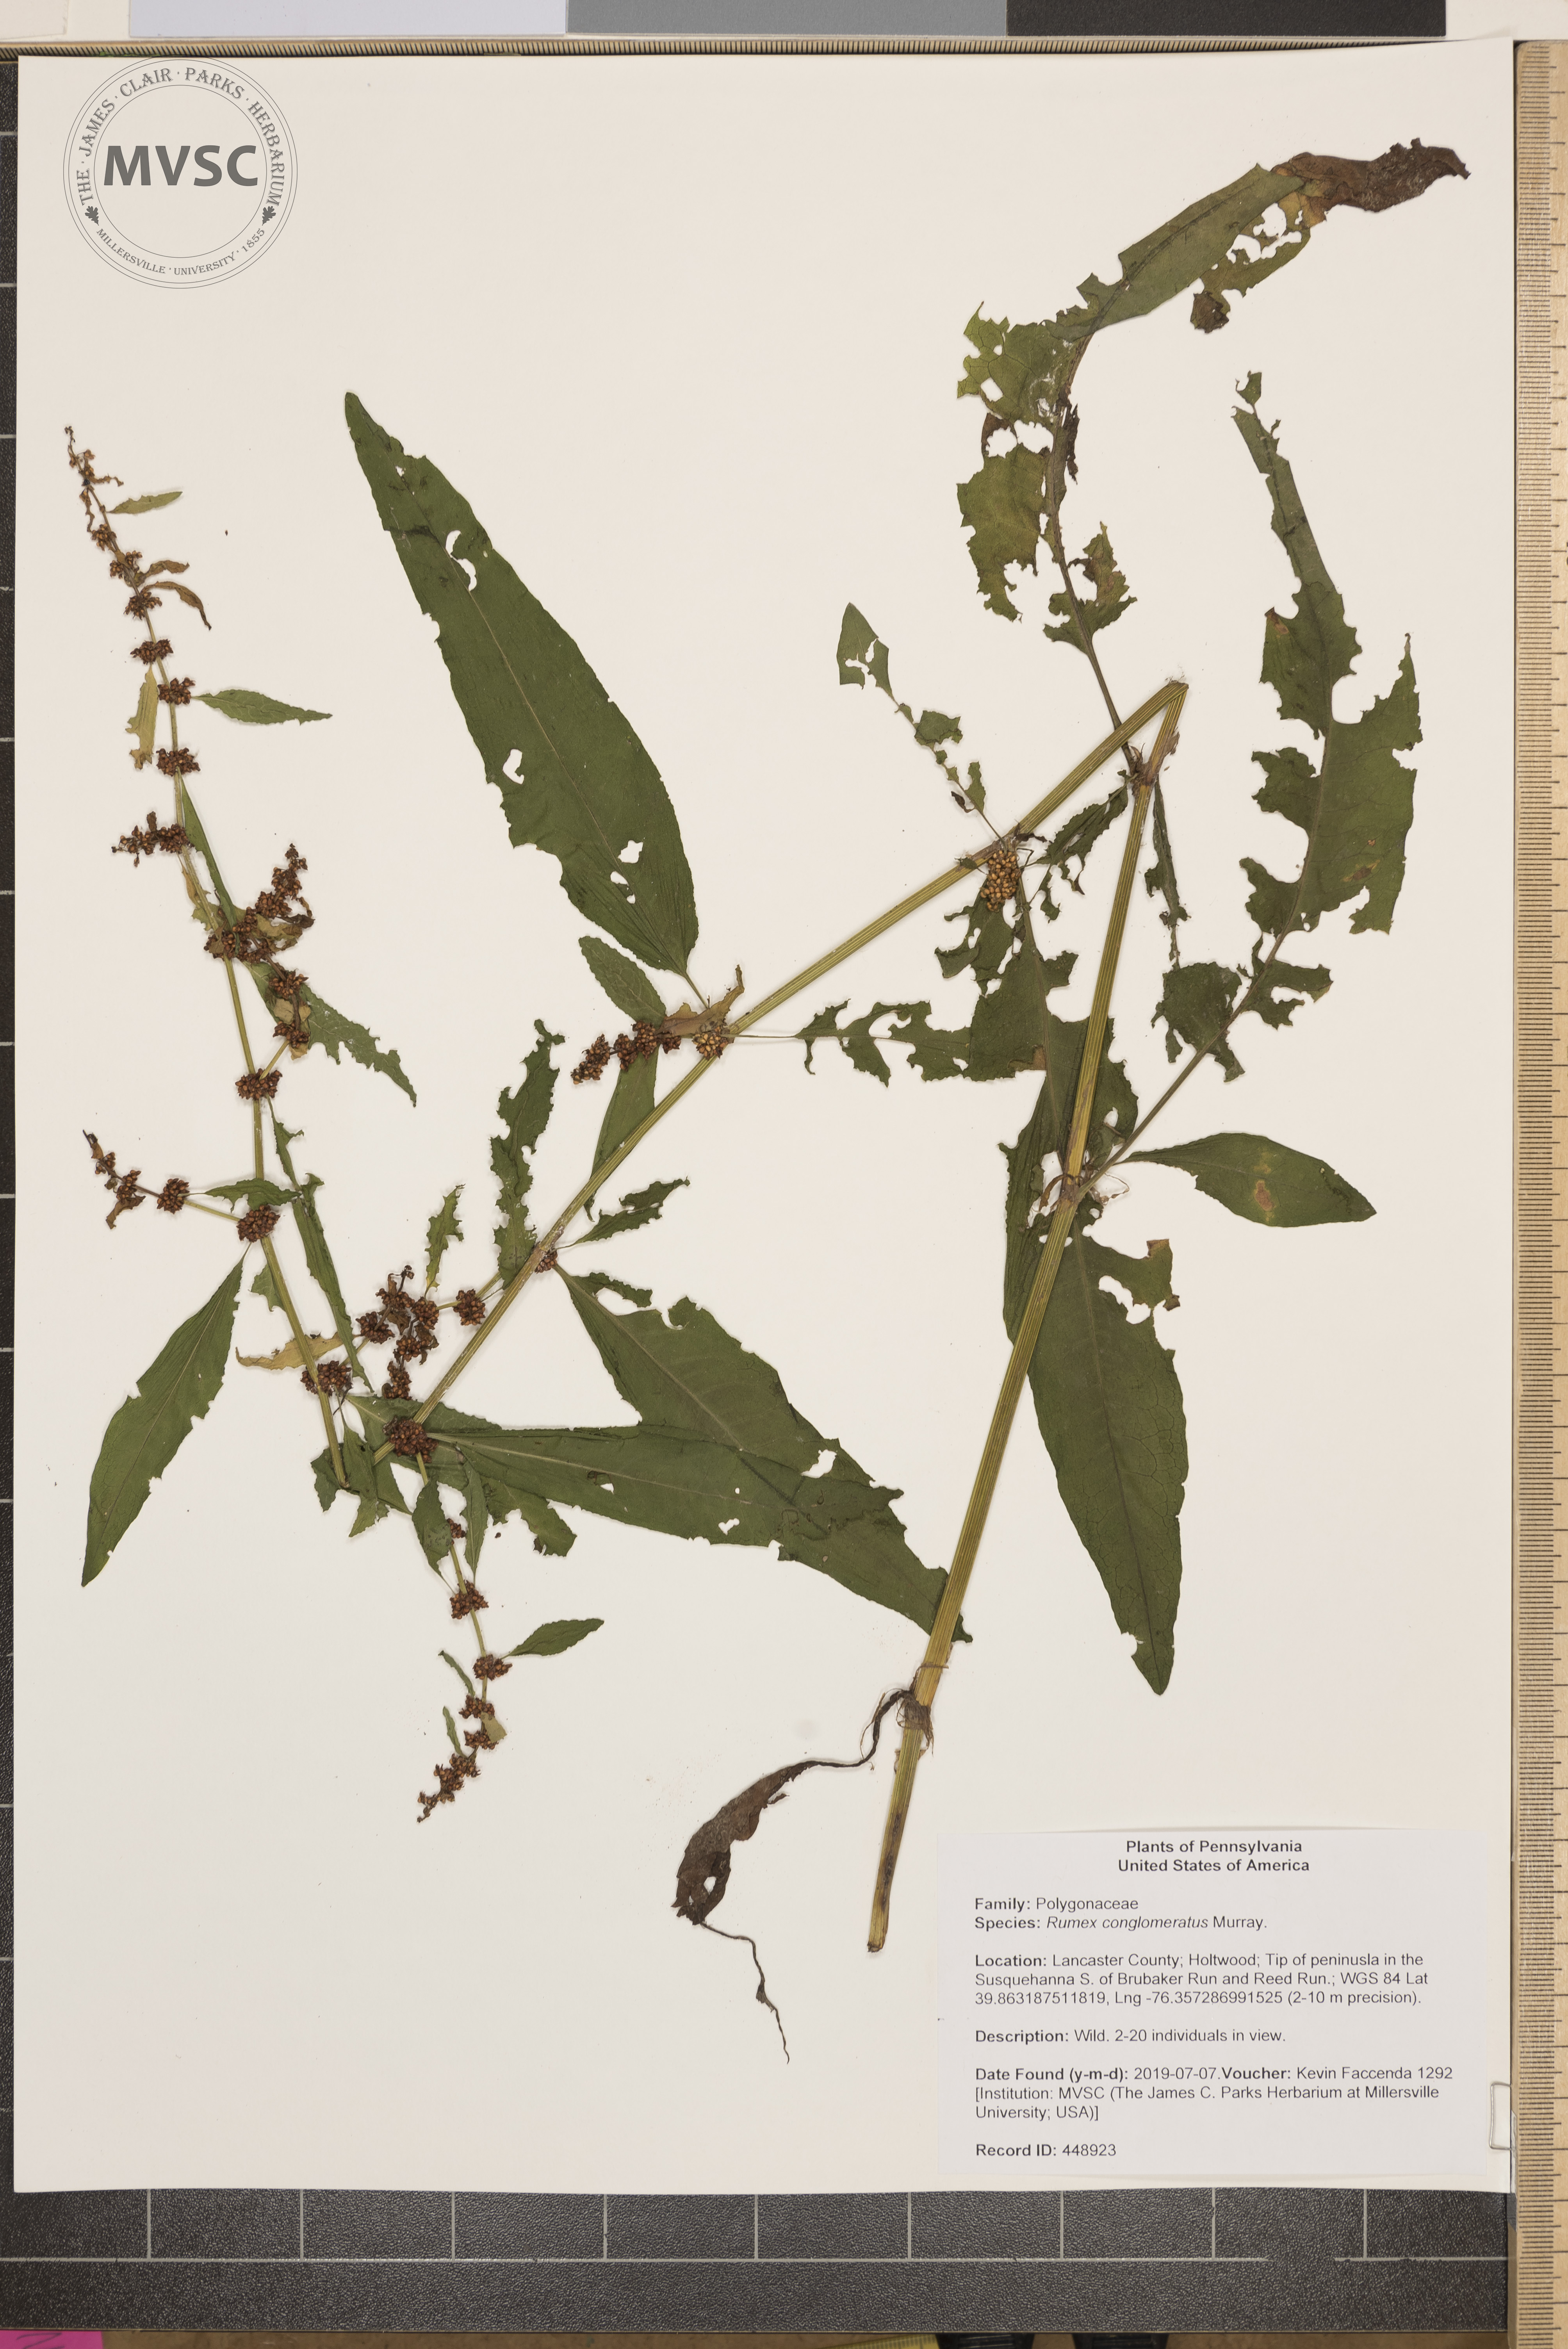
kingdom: Plantae
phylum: Tracheophyta
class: Magnoliopsida
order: Caryophyllales
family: Polygonaceae
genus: Rumex
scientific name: Rumex conglomeratus
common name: Clustered dock
